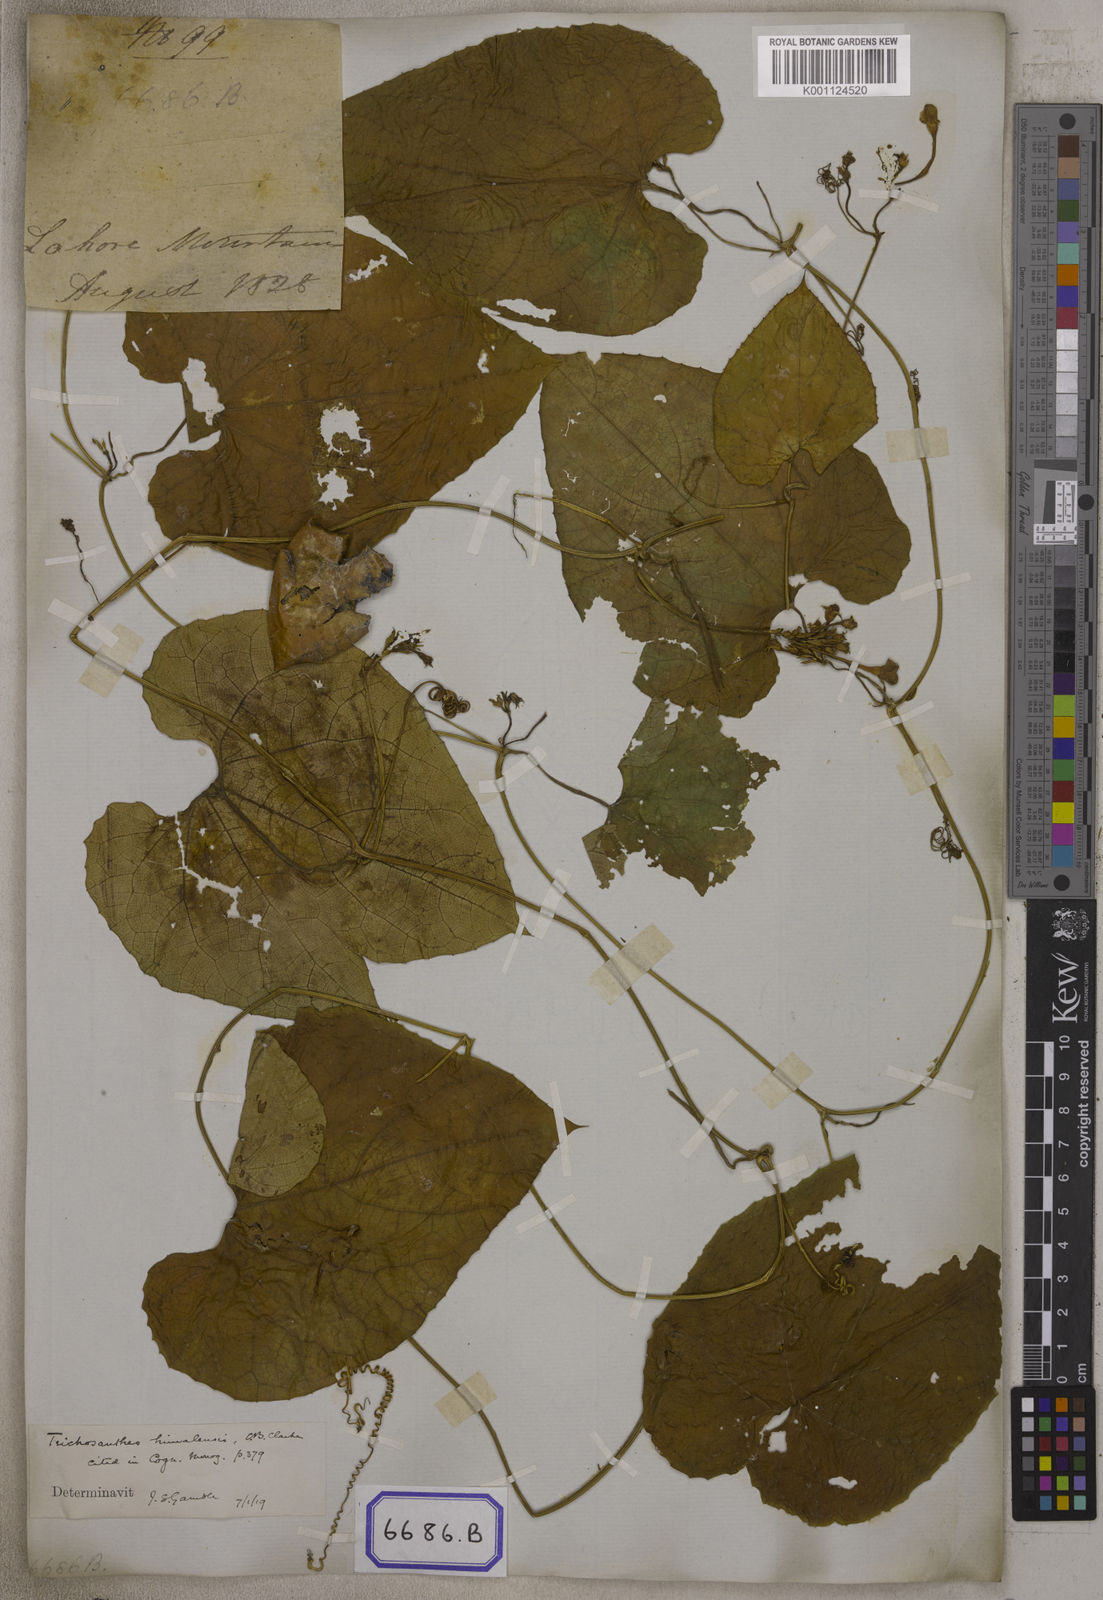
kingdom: Plantae
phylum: Tracheophyta
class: Magnoliopsida
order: Cucurbitales
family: Cucurbitaceae
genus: Trichosanthes
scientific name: Trichosanthes
